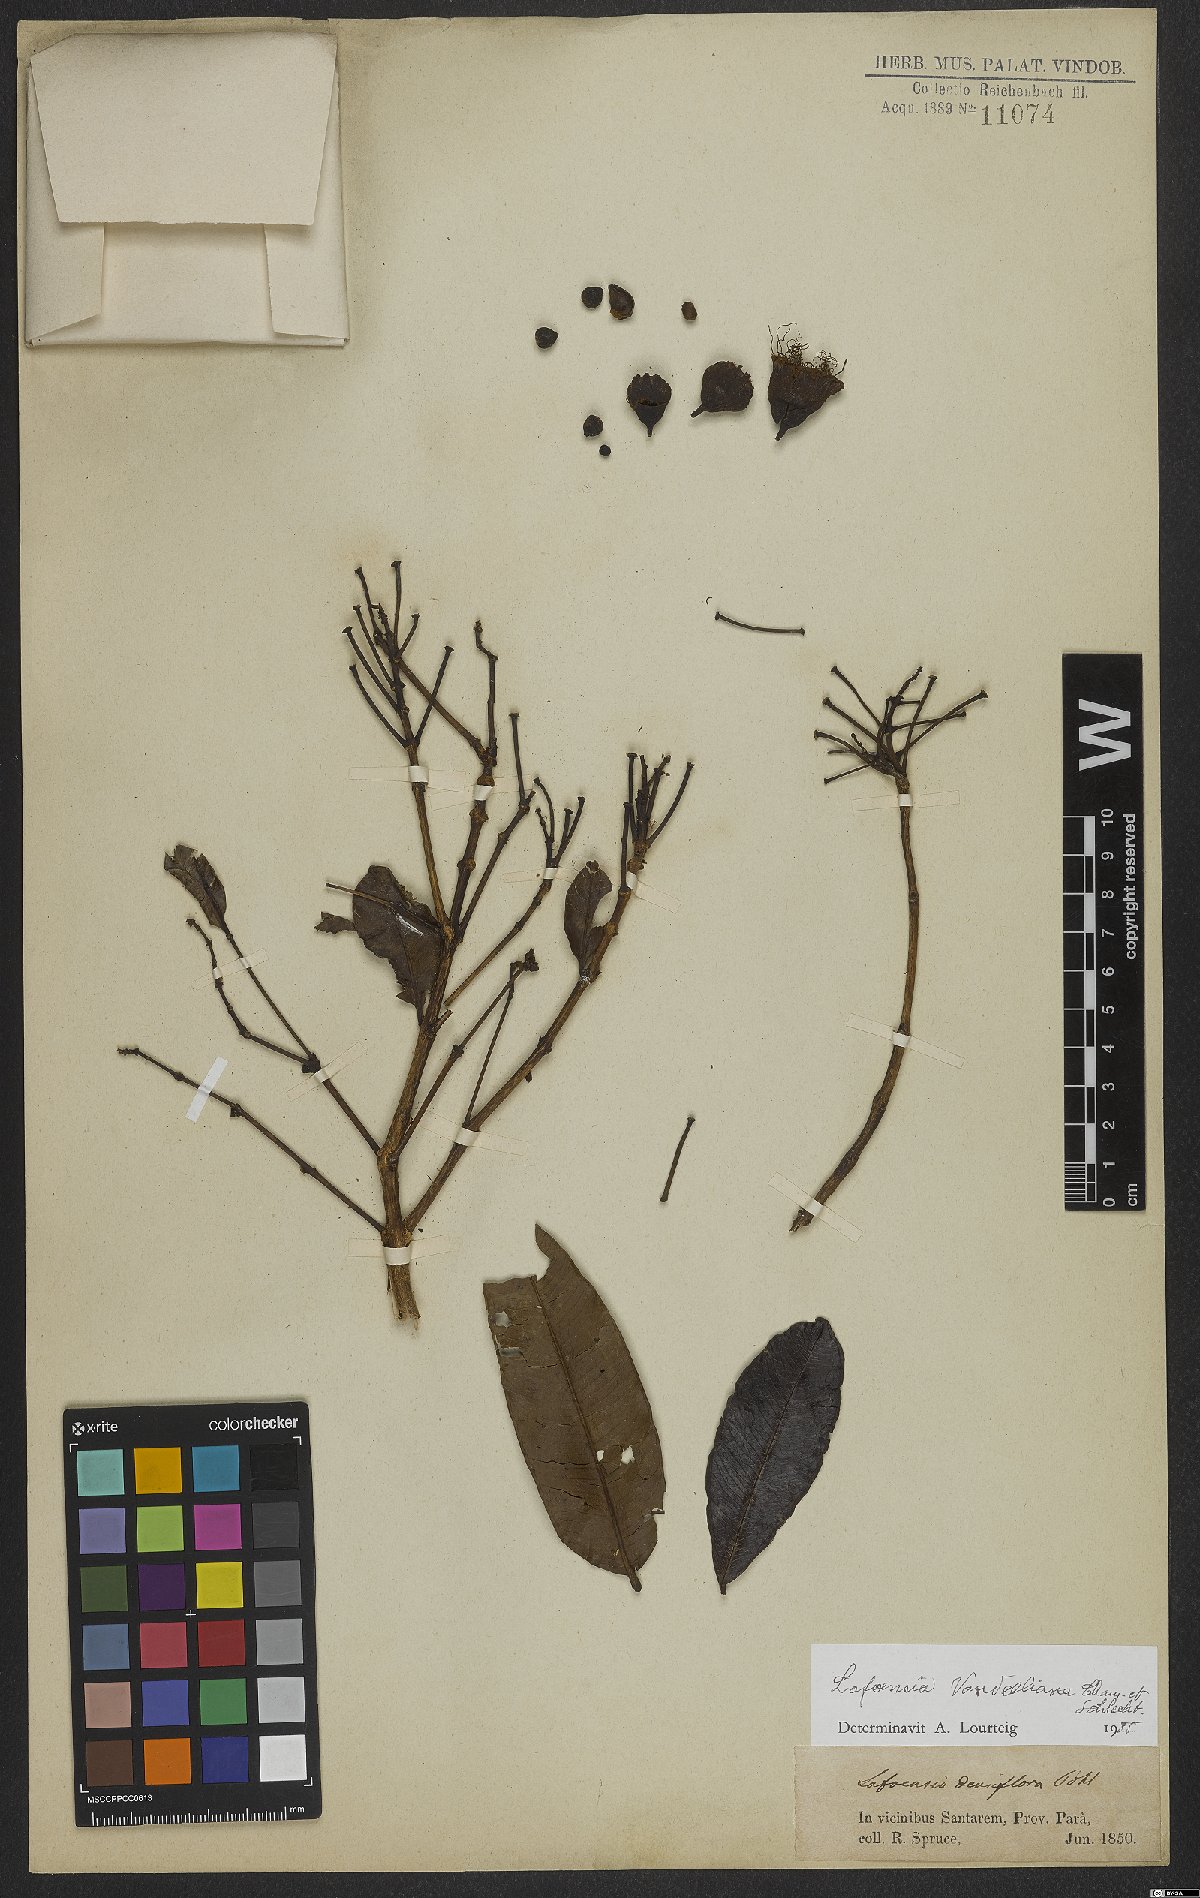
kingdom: Plantae
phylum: Tracheophyta
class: Magnoliopsida
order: Myrtales
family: Lythraceae
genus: Lafoensia
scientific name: Lafoensia vandelliana
